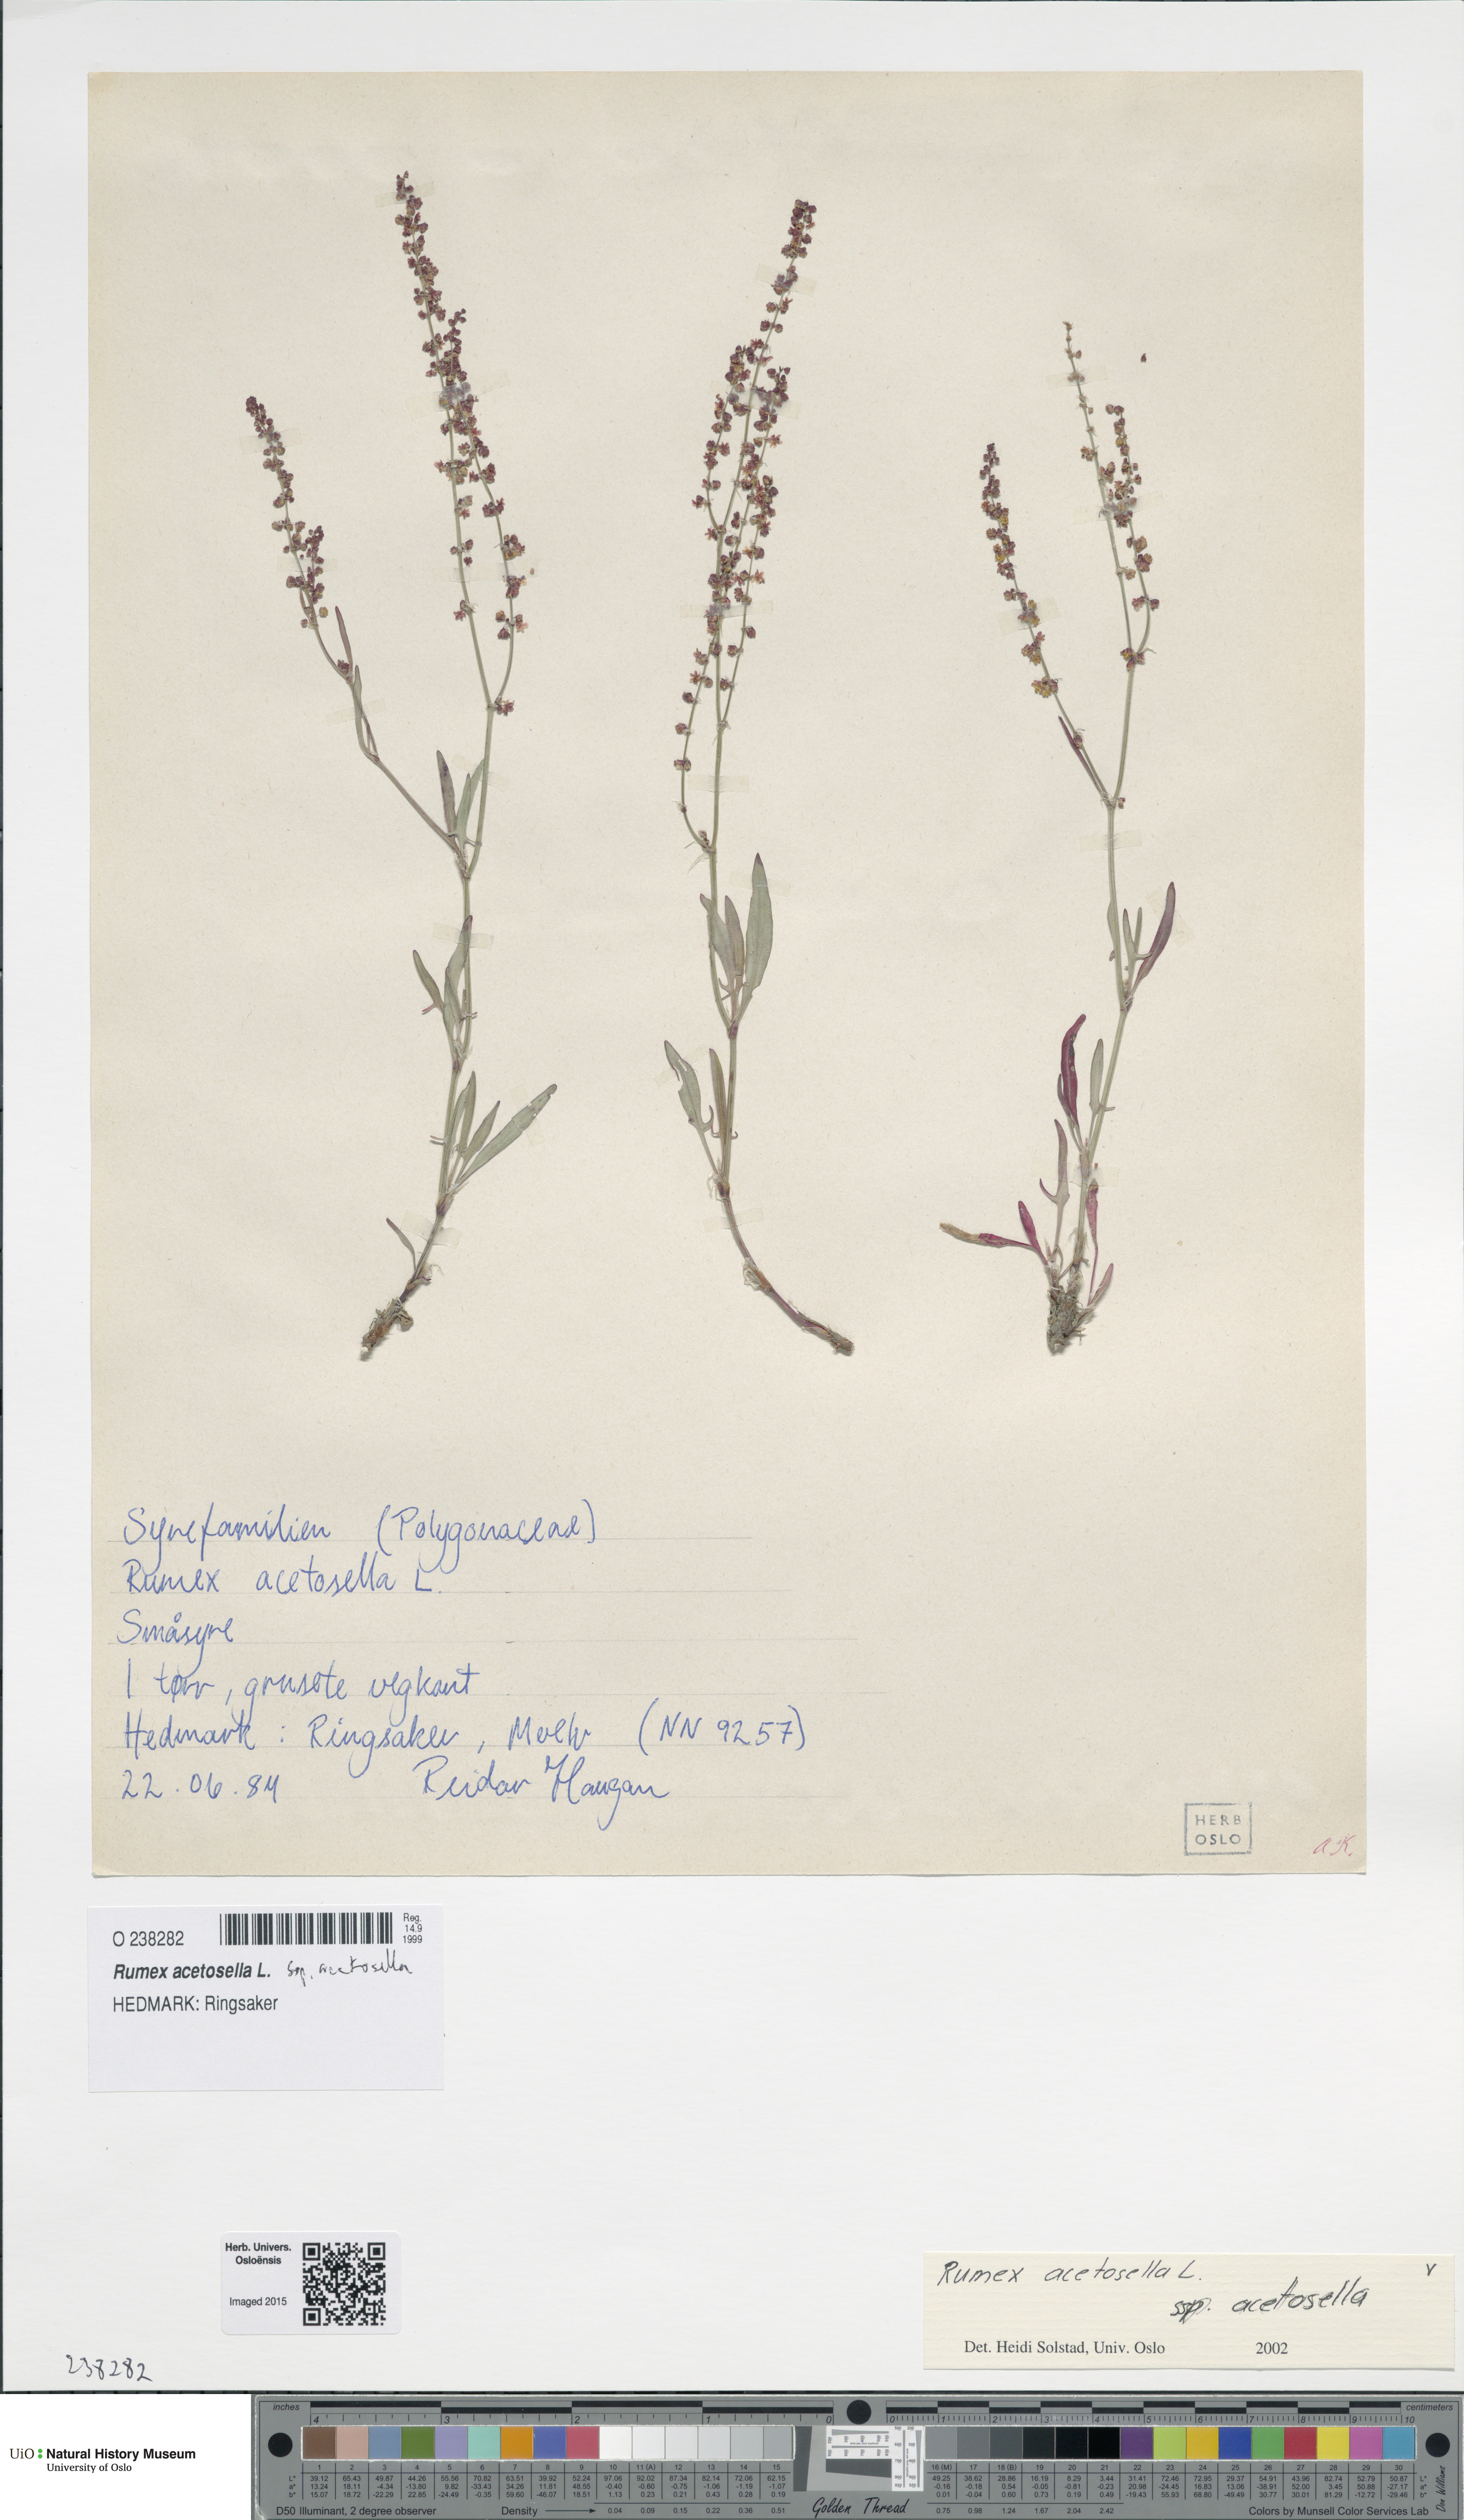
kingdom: Plantae
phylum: Tracheophyta
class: Magnoliopsida
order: Caryophyllales
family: Polygonaceae
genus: Rumex
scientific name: Rumex acetosella
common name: Common sheep sorrel
